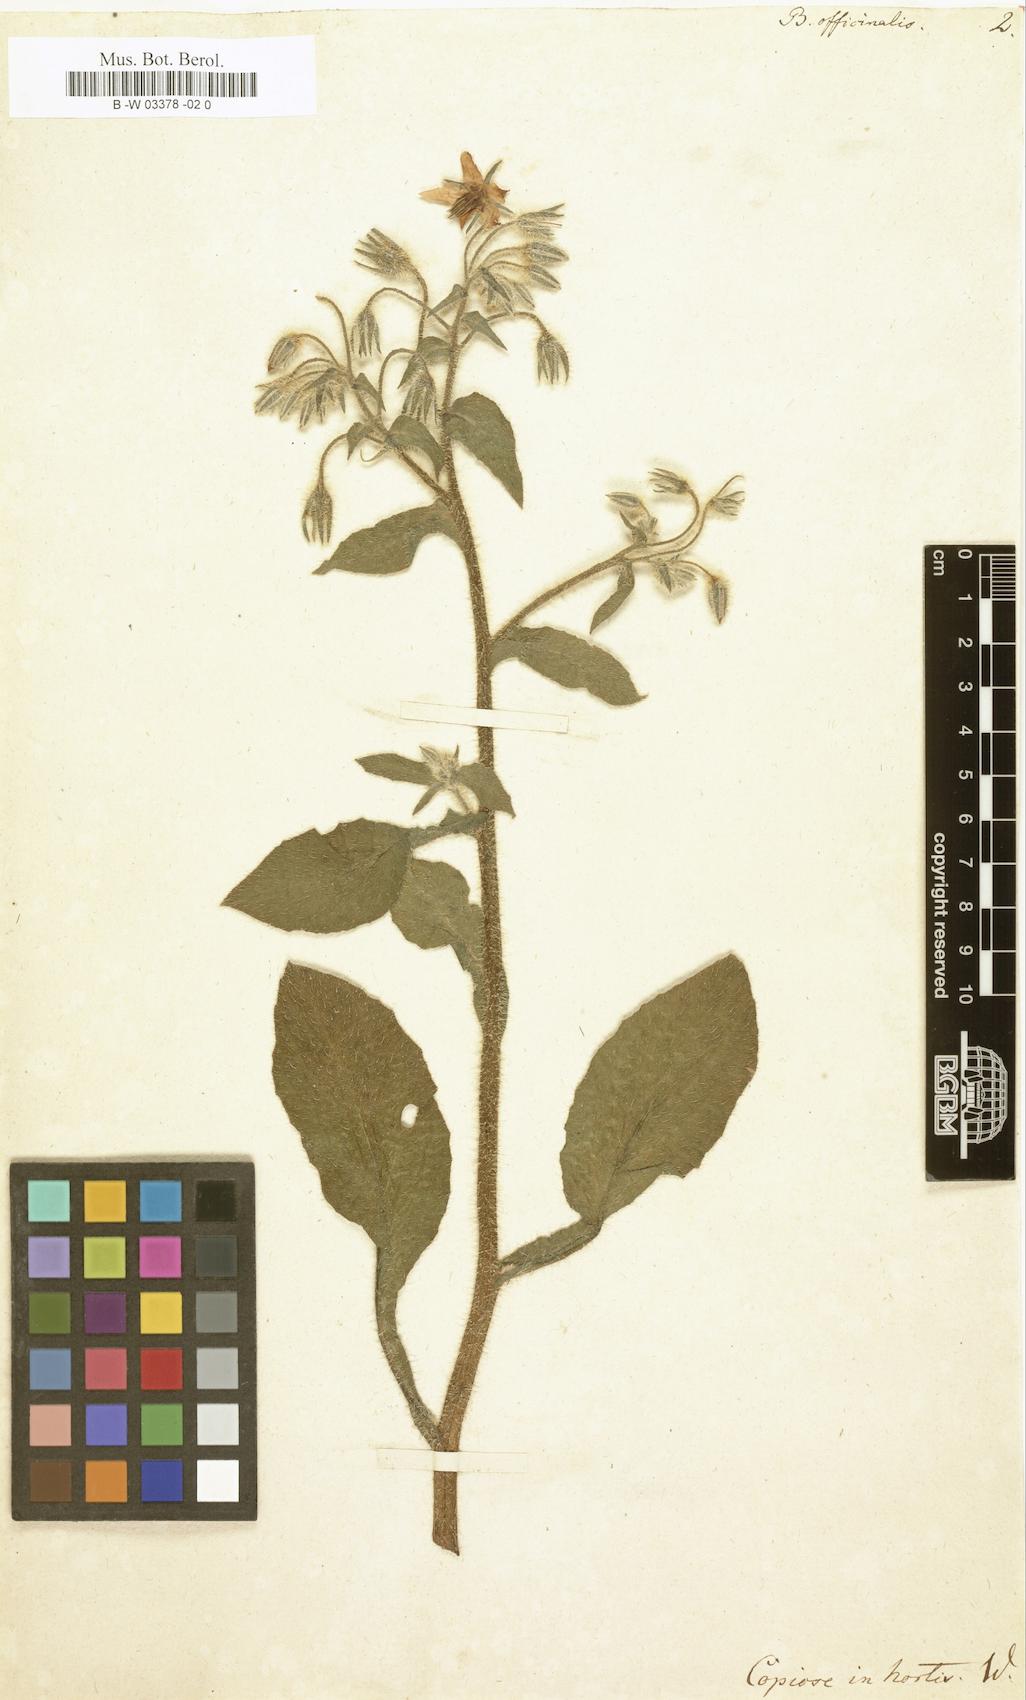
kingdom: Plantae
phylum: Tracheophyta
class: Magnoliopsida
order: Boraginales
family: Boraginaceae
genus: Borago
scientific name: Borago officinalis
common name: Borage
